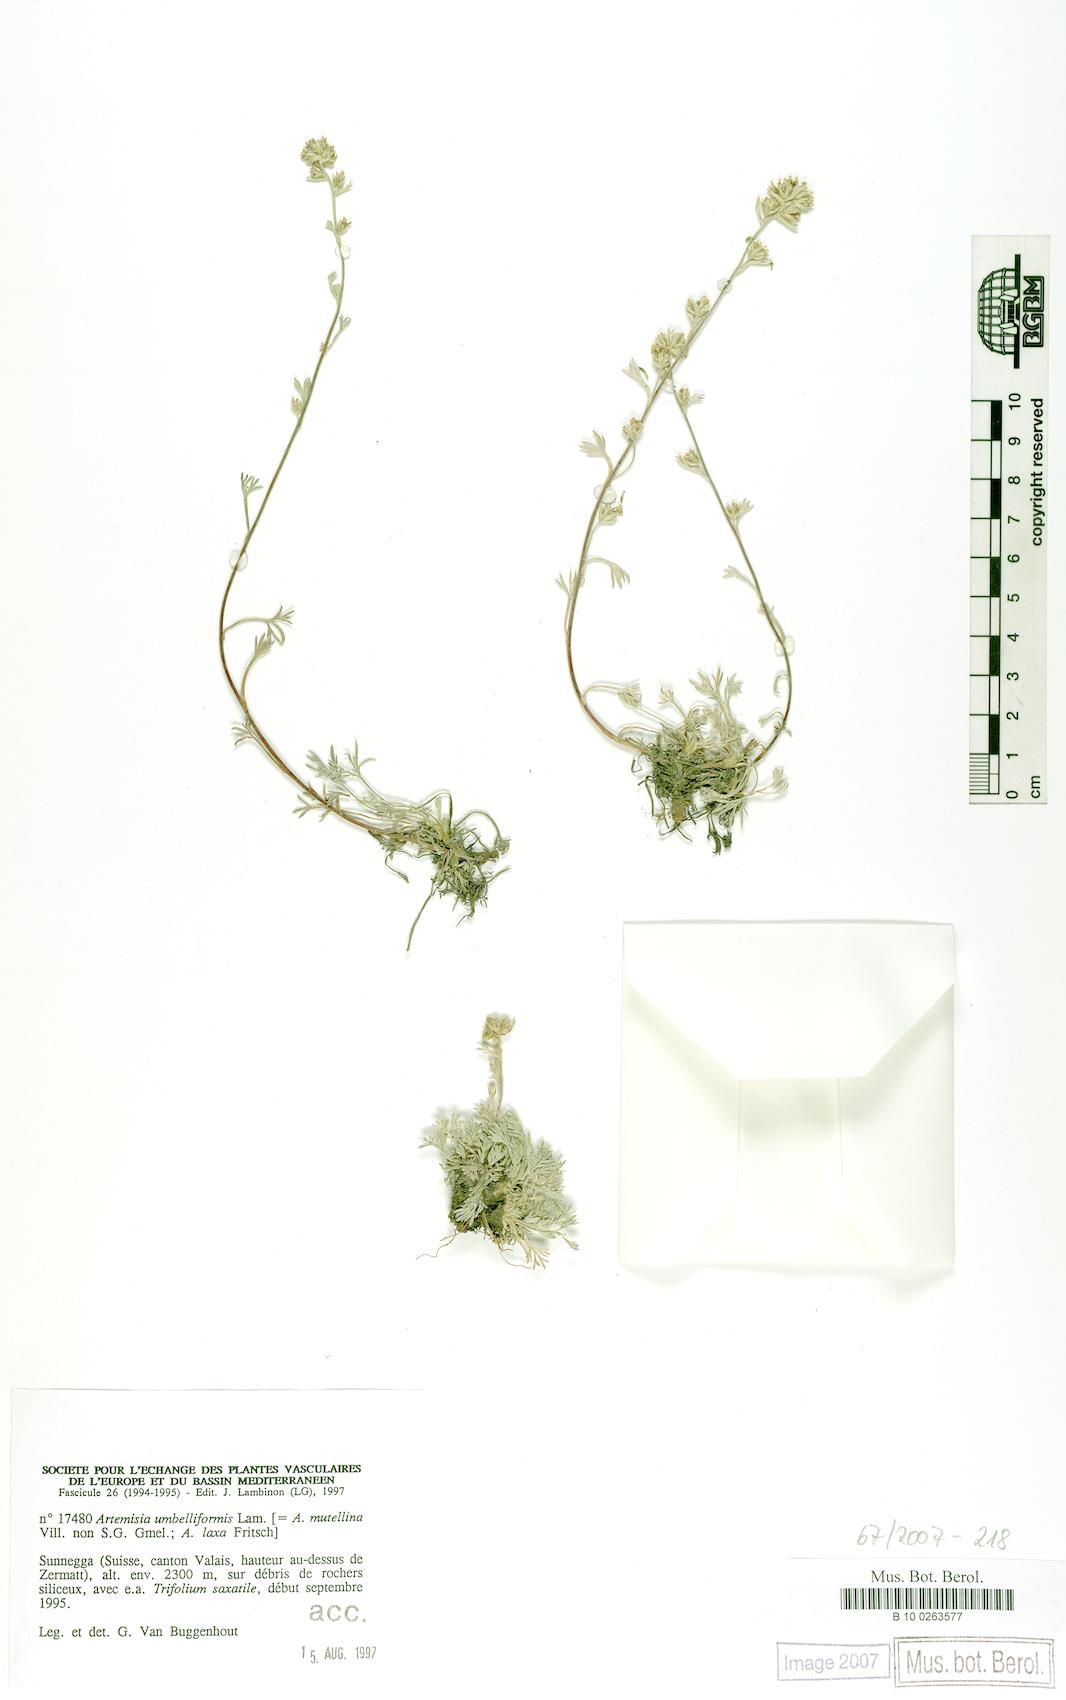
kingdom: Plantae
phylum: Tracheophyta
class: Magnoliopsida
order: Asterales
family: Asteraceae
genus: Artemisia
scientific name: Artemisia umbelliformis
